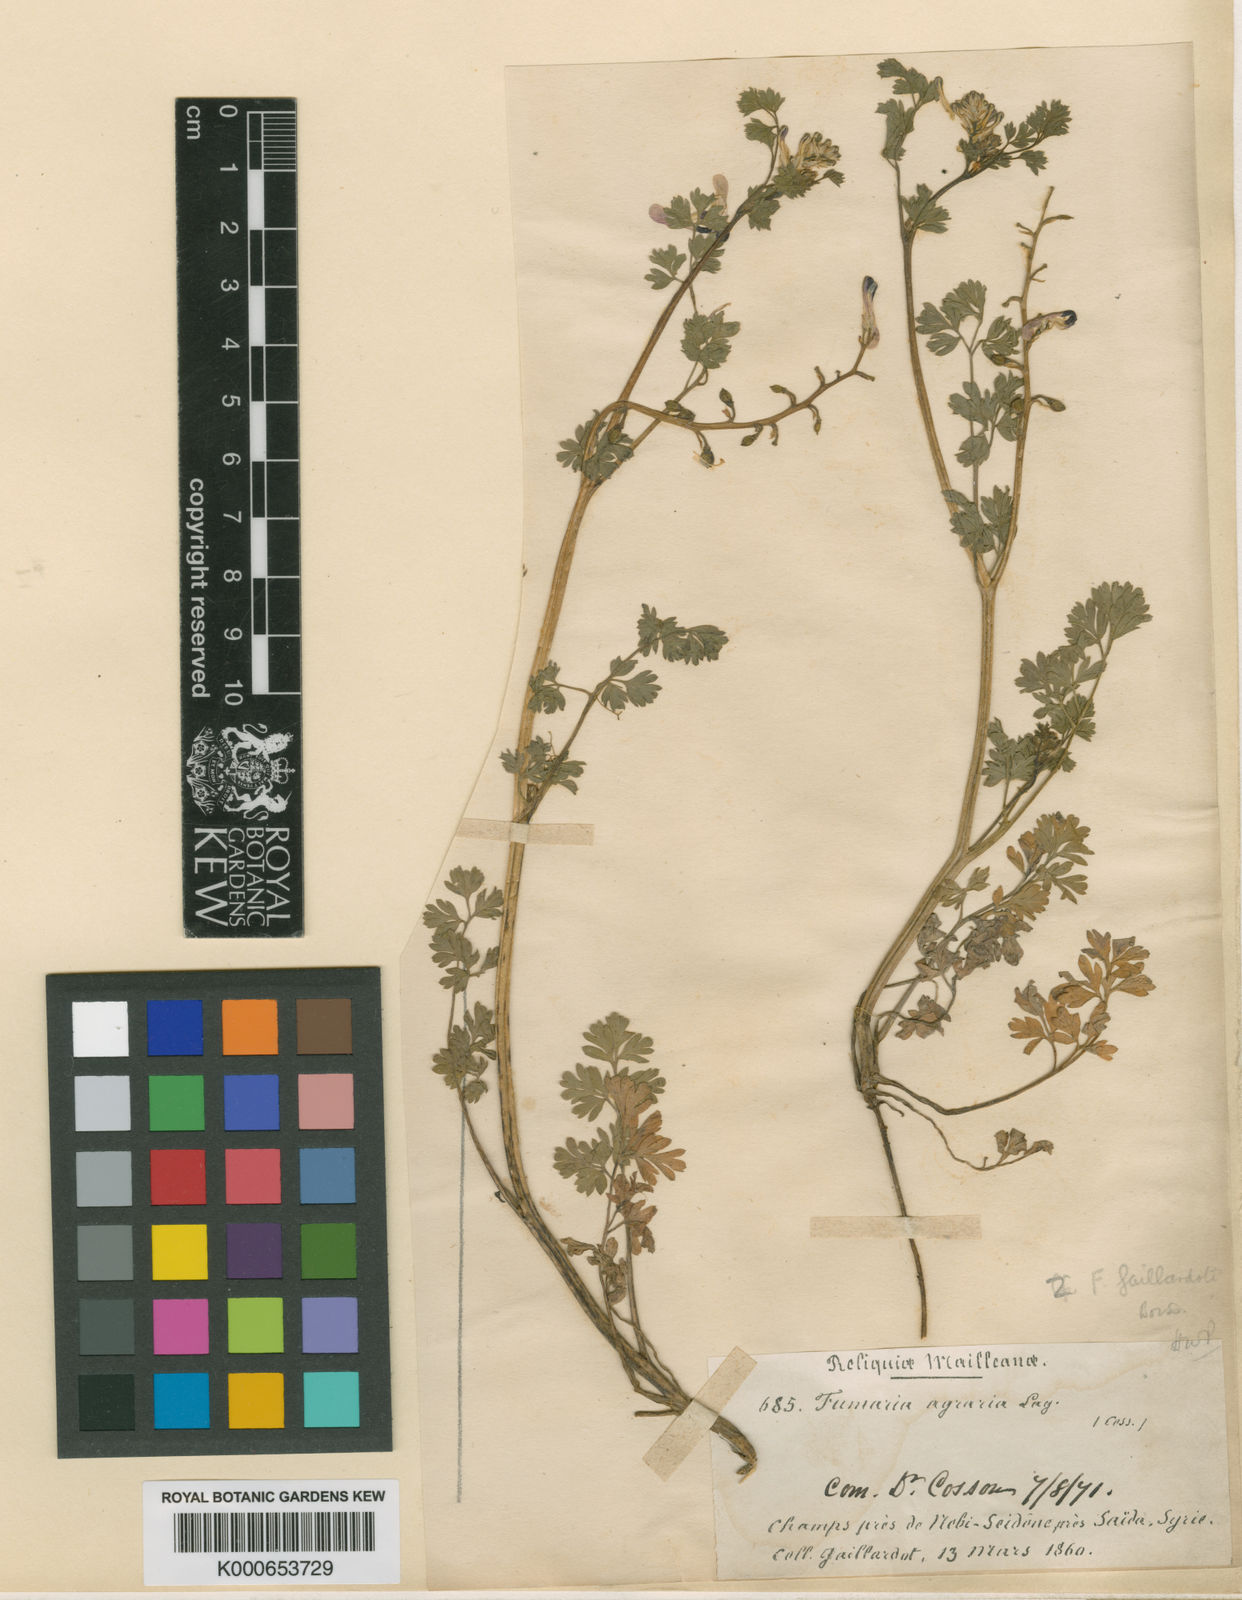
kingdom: Plantae
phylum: Tracheophyta
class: Magnoliopsida
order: Ranunculales
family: Papaveraceae
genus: Fumaria
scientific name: Fumaria gaillardotii
